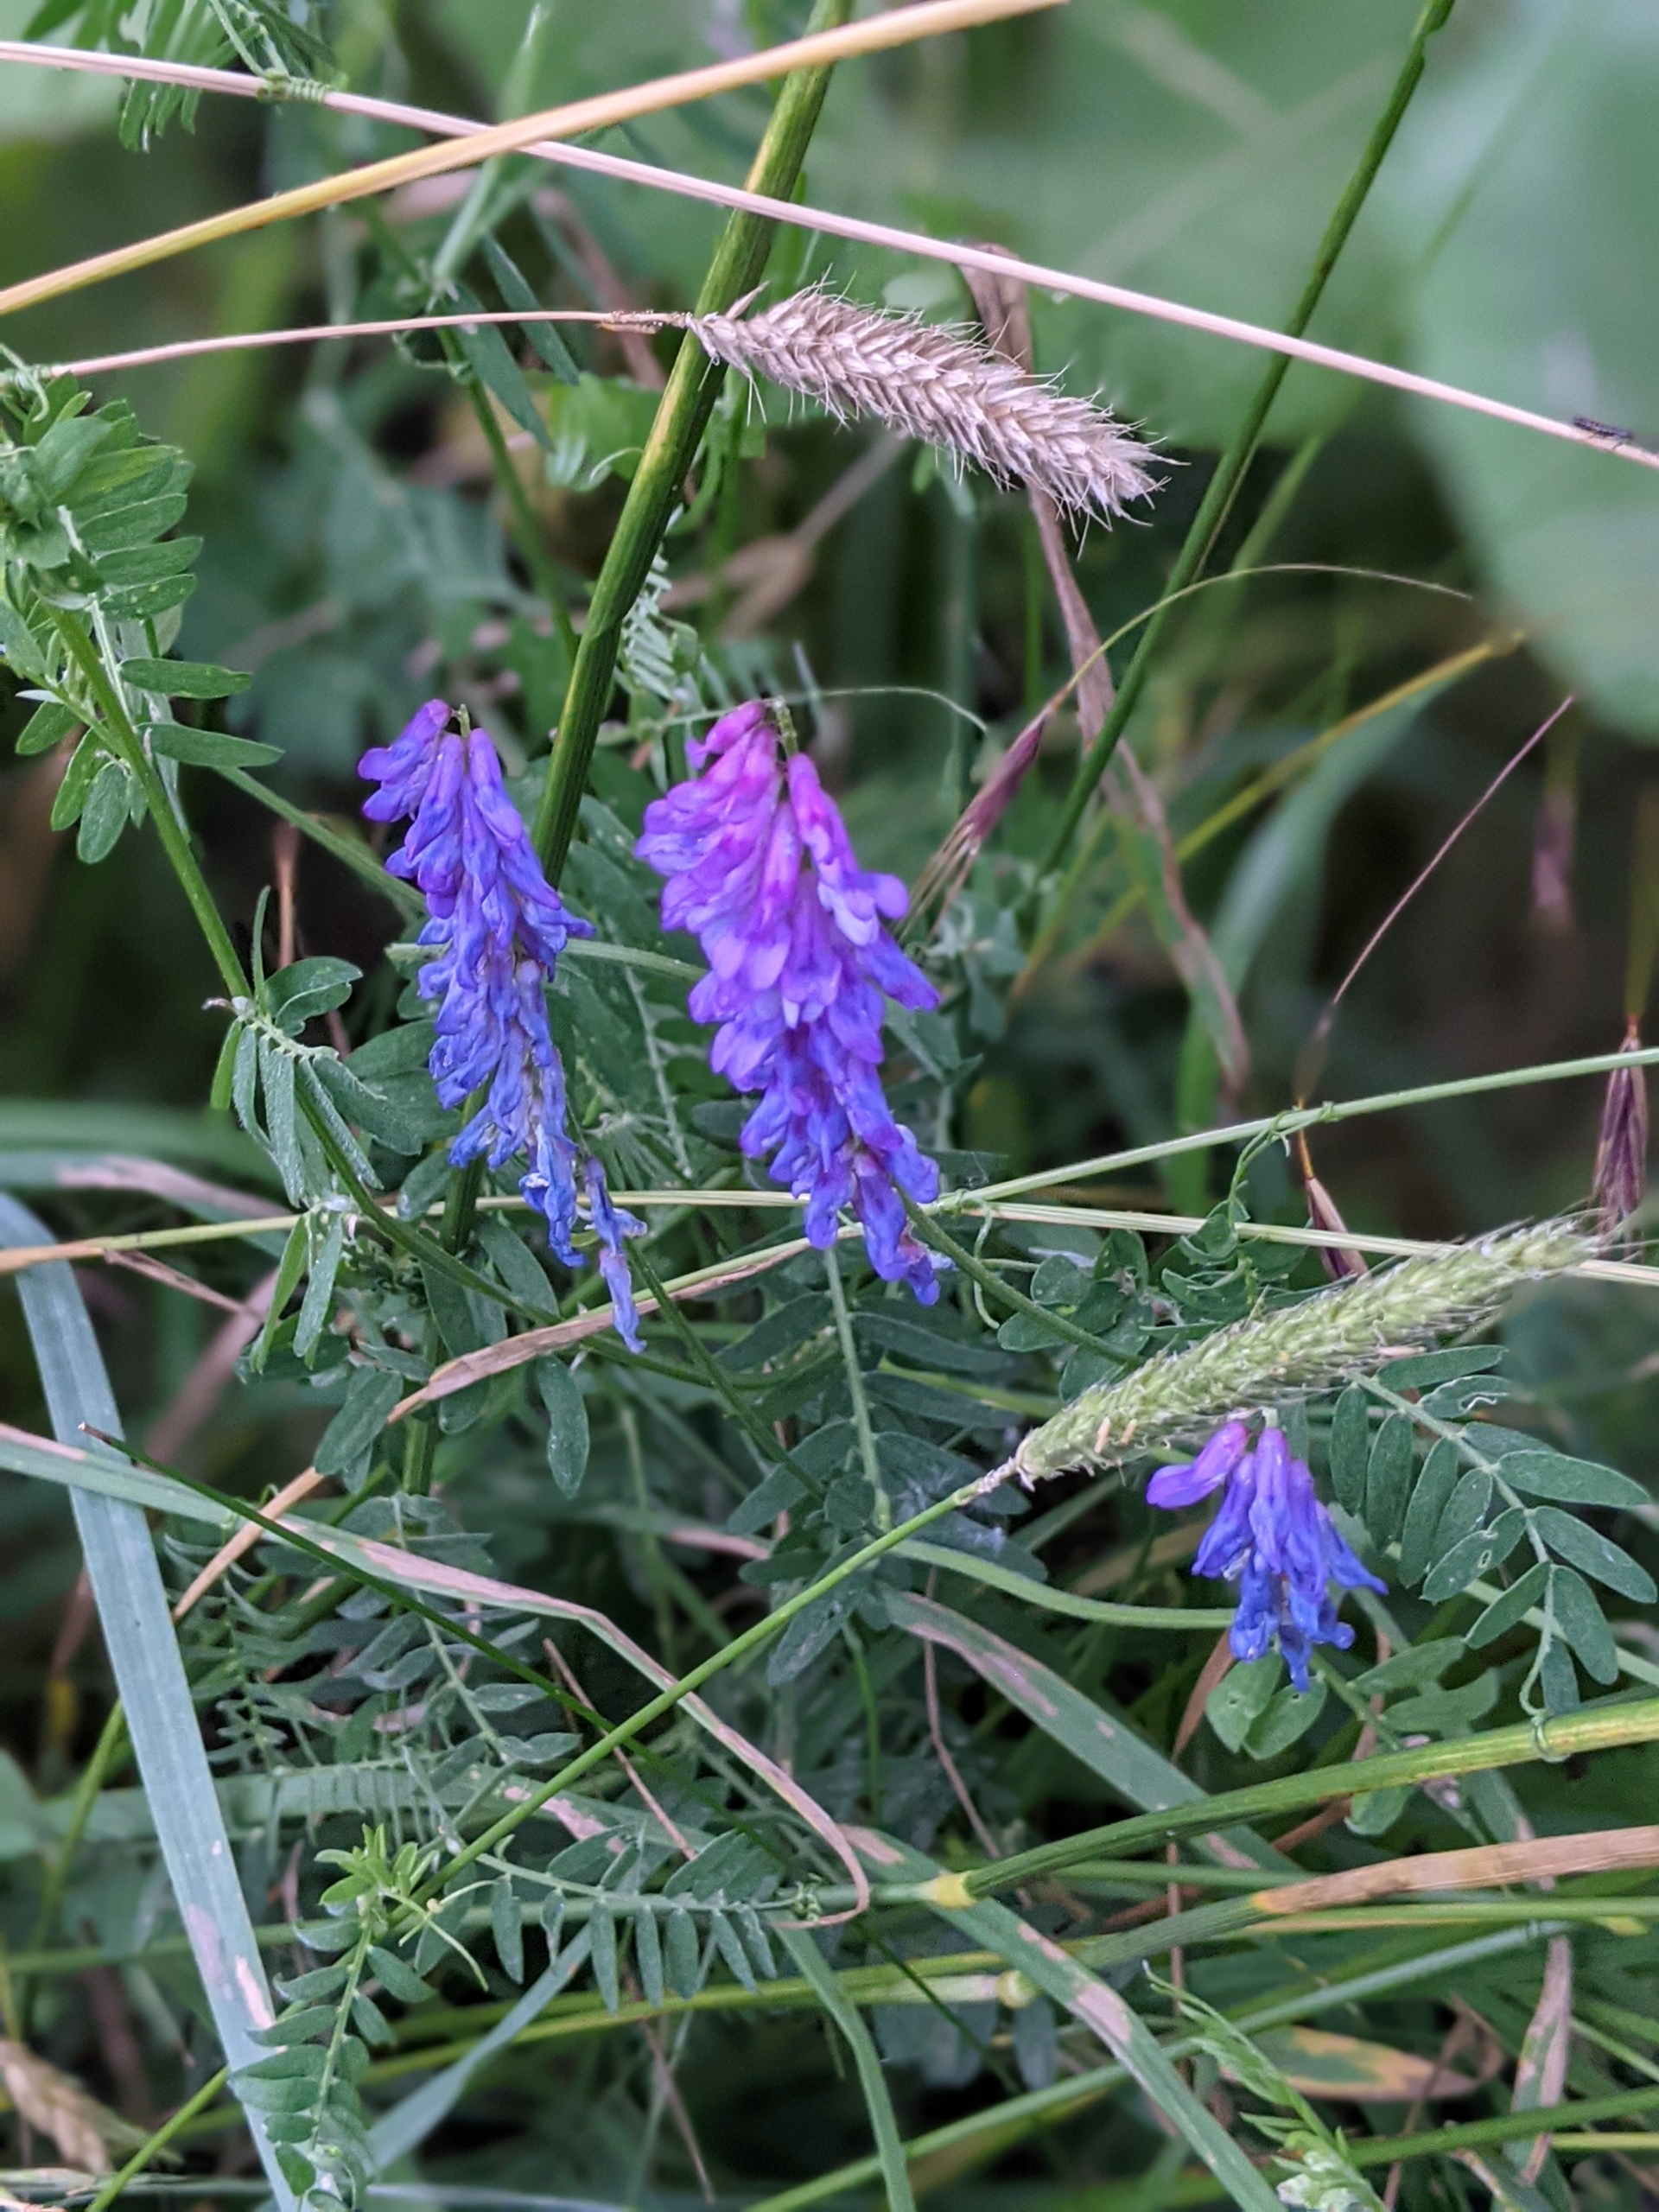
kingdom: Plantae
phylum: Tracheophyta
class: Magnoliopsida
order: Fabales
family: Fabaceae
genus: Vicia
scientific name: Vicia cracca
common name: Muse-vikke
